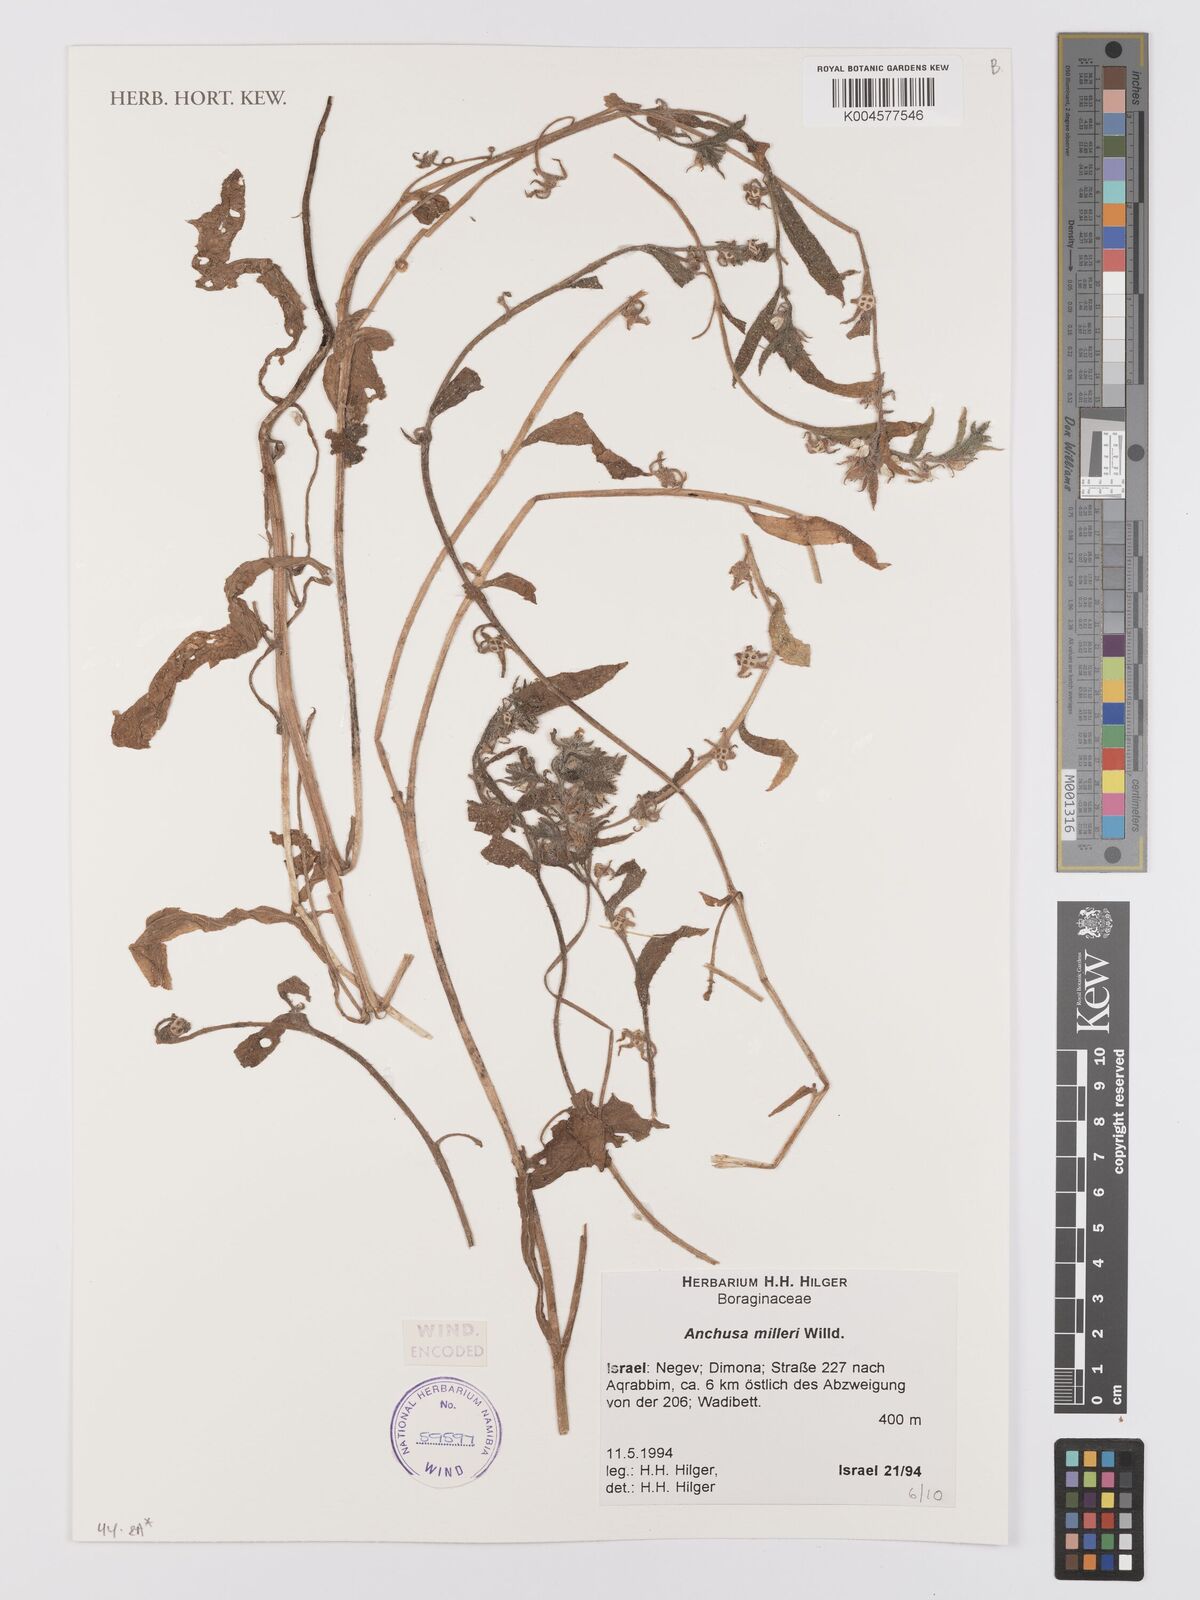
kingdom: Plantae
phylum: Tracheophyta
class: Magnoliopsida
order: Boraginales
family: Boraginaceae
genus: Anchusa
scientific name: Anchusa milleri
